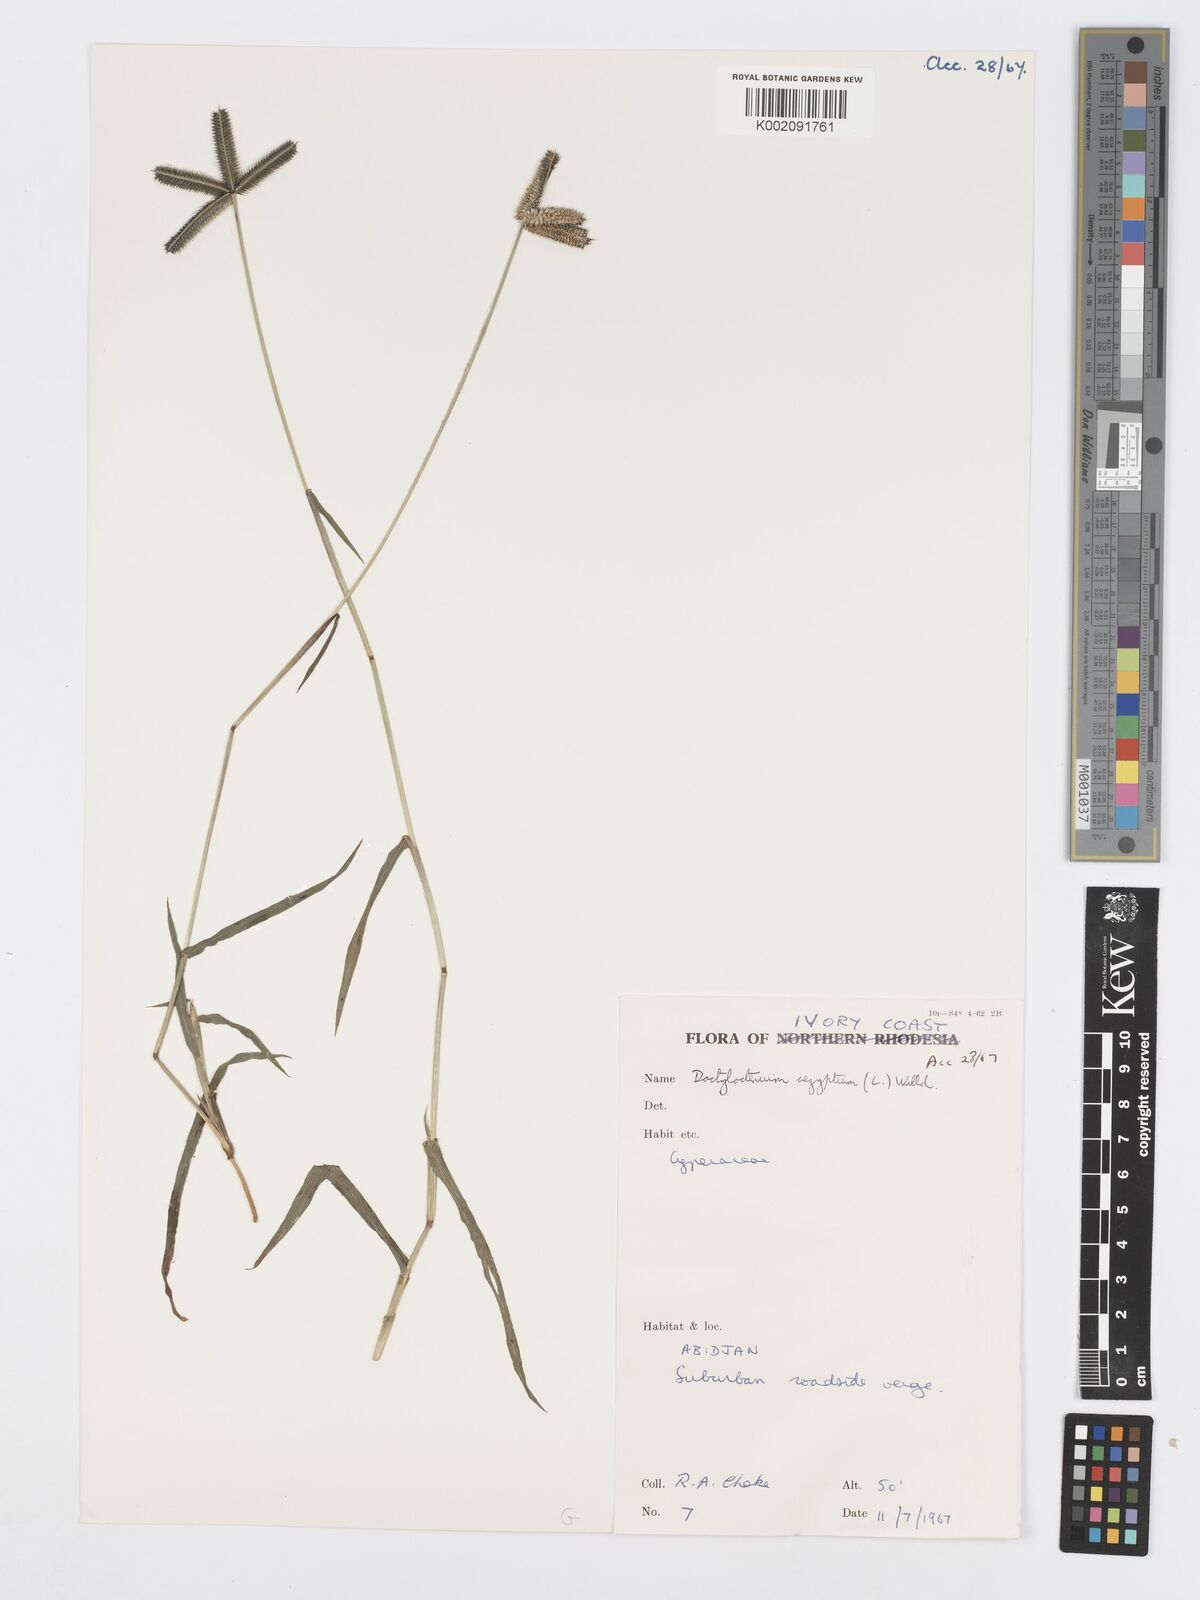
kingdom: Plantae
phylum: Tracheophyta
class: Liliopsida
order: Poales
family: Poaceae
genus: Dactyloctenium
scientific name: Dactyloctenium aegyptium
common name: Egyptian grass
